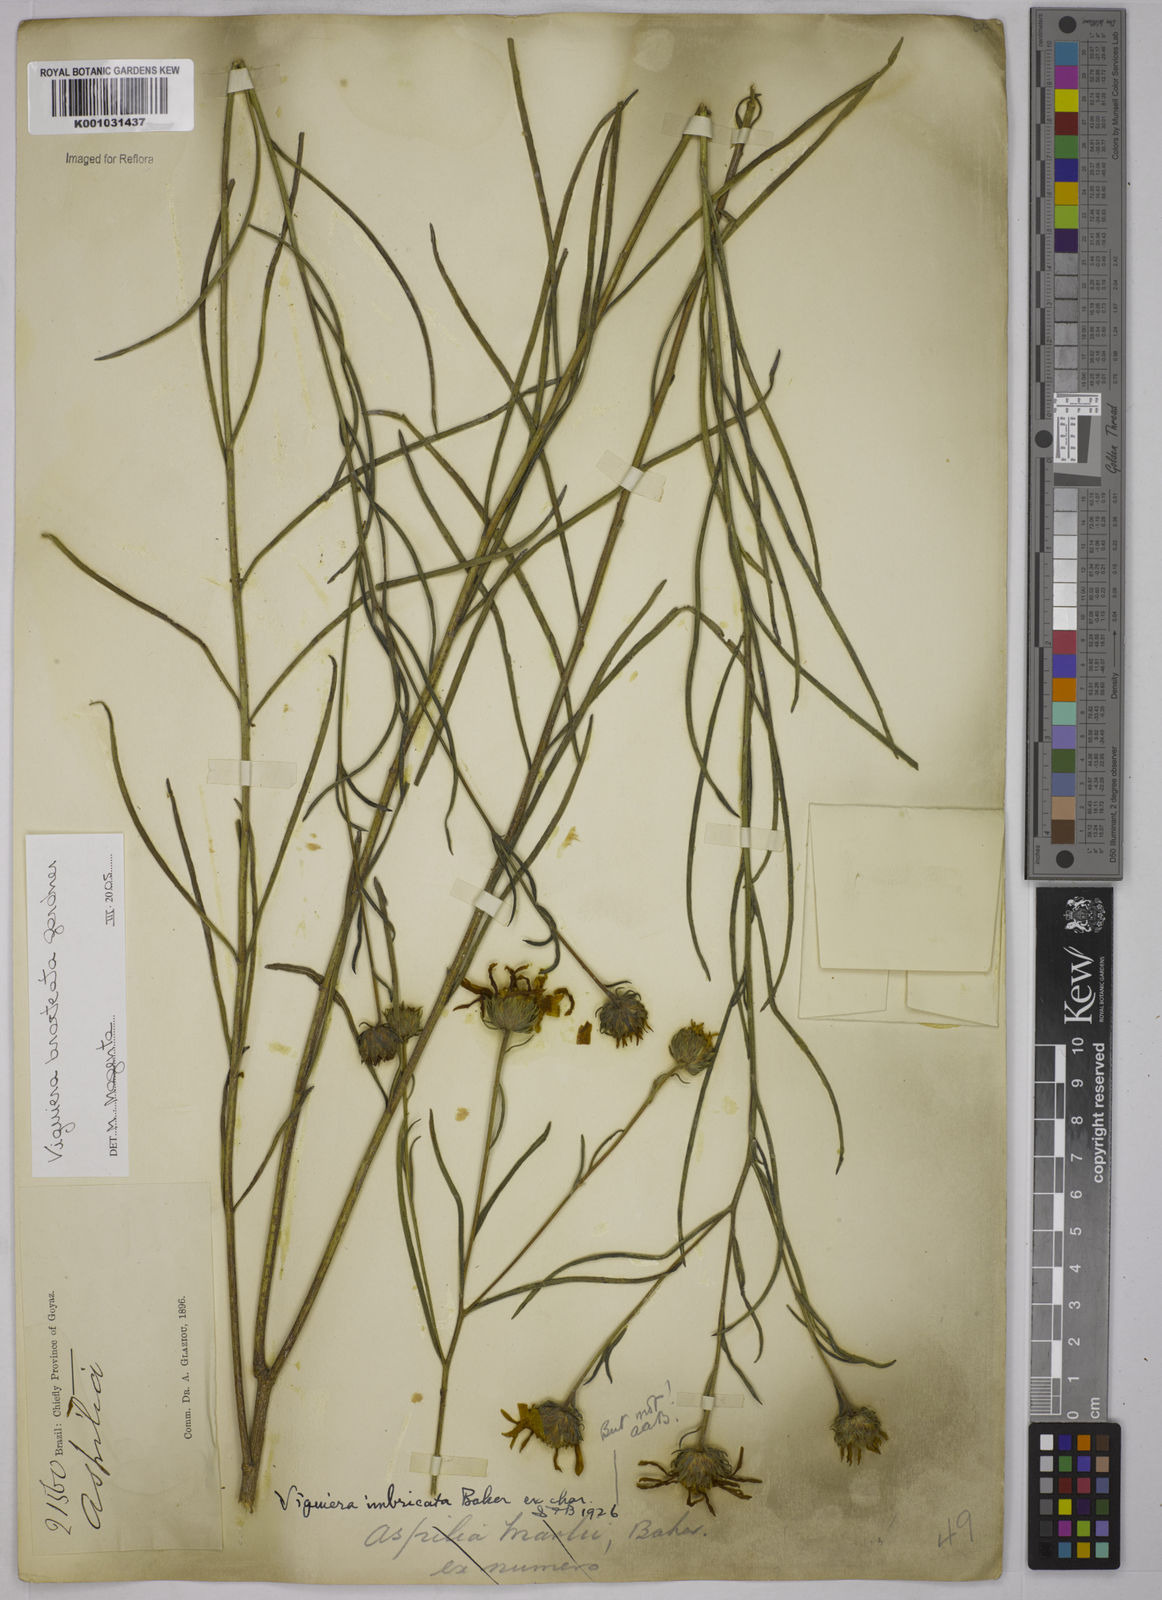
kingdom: Plantae
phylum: Tracheophyta
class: Magnoliopsida
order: Asterales
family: Asteraceae
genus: Aldama
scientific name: Aldama bracteata
